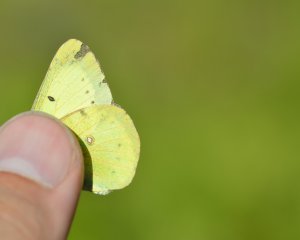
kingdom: Animalia
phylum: Arthropoda
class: Insecta
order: Lepidoptera
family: Pieridae
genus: Colias
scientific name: Colias philodice
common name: Clouded Sulphur
